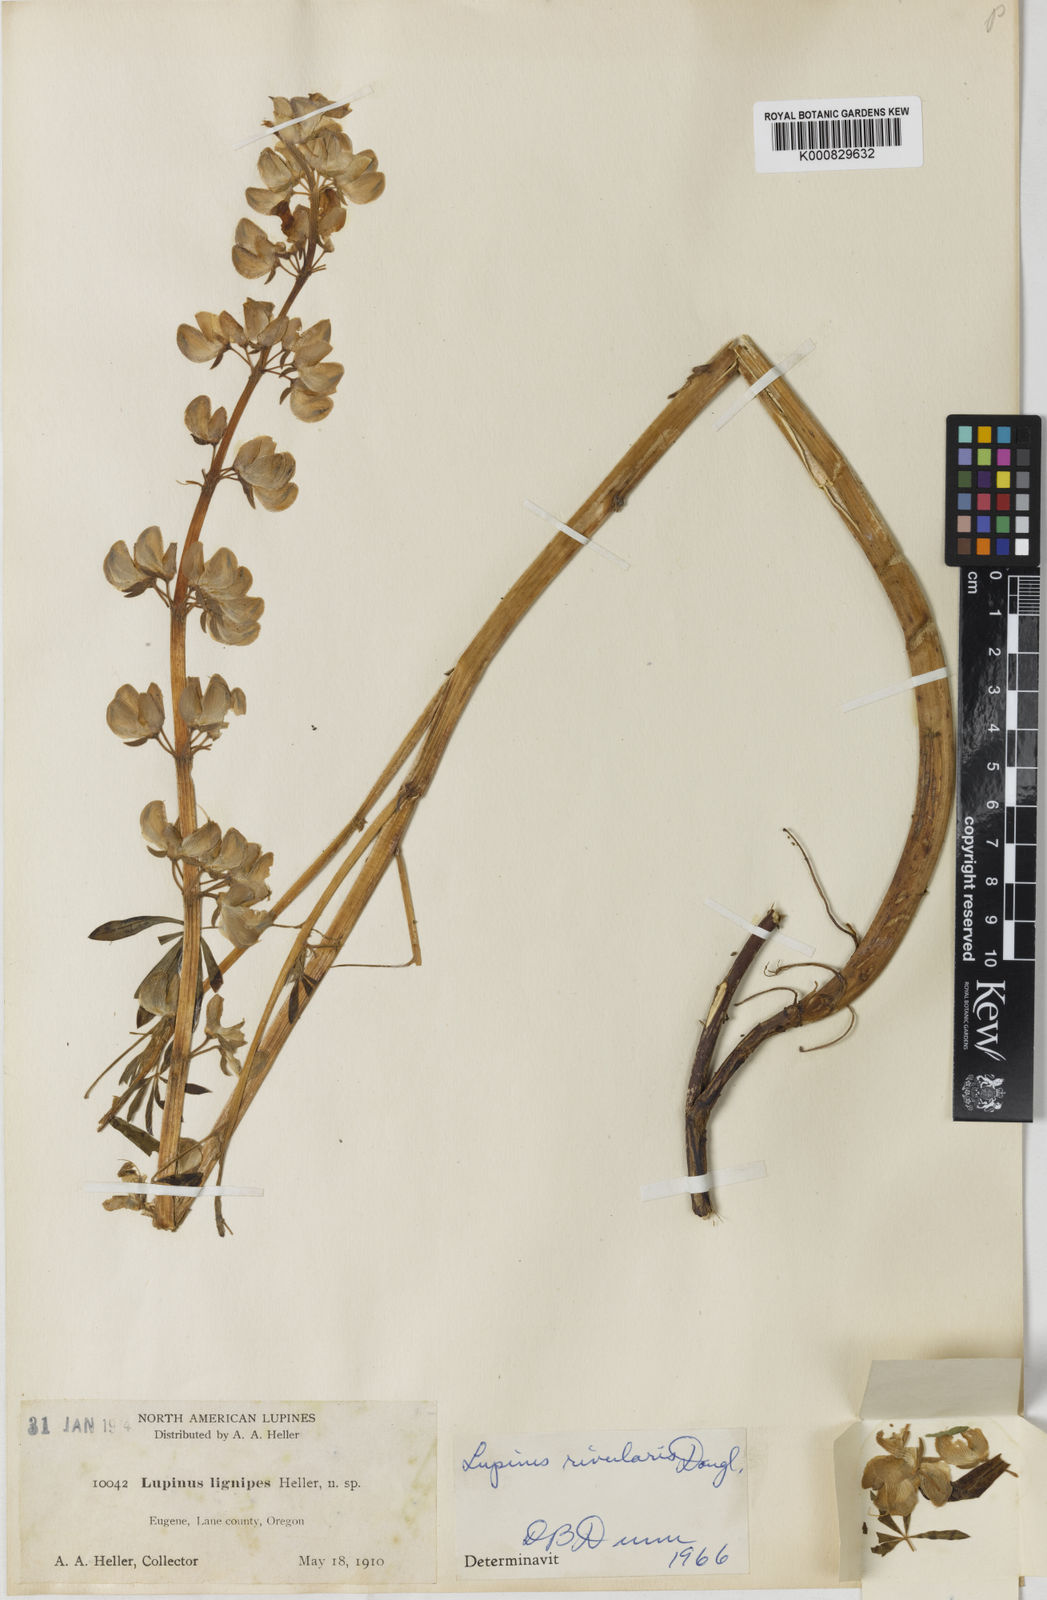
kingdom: Plantae
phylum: Tracheophyta
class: Magnoliopsida
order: Fabales
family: Fabaceae
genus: Lupinus
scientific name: Lupinus rivularis
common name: Riverbank lupine
